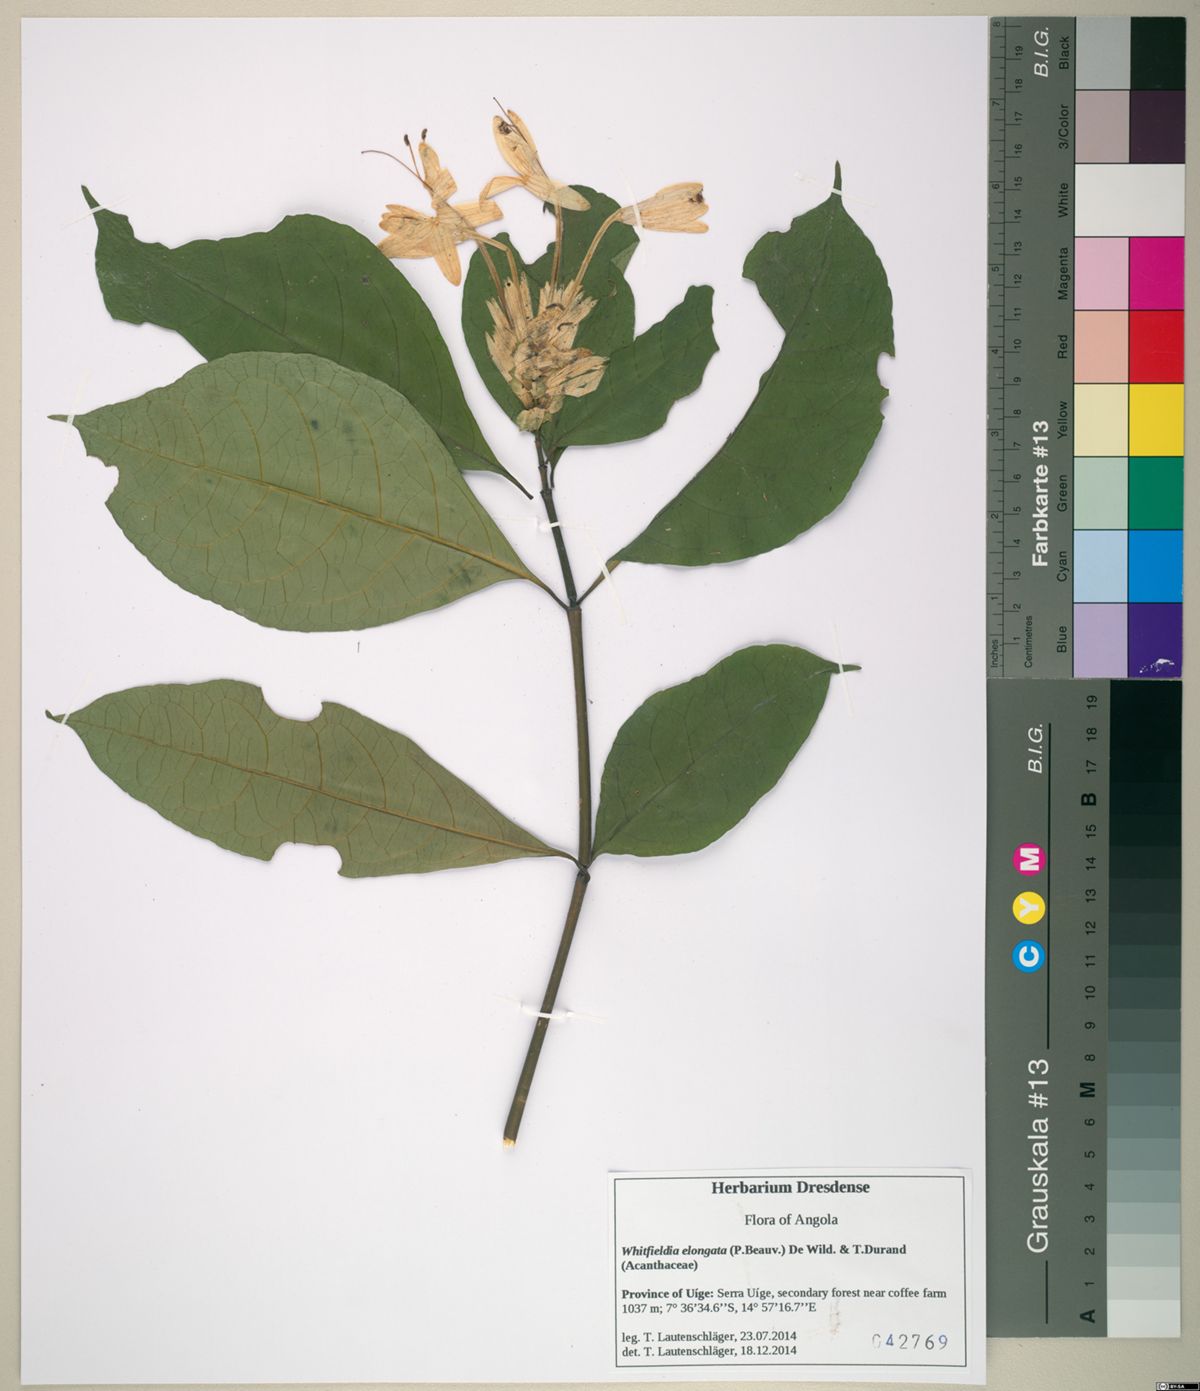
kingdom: Plantae
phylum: Tracheophyta
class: Magnoliopsida
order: Lamiales
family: Acanthaceae
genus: Whitfieldia
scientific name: Whitfieldia elongata
